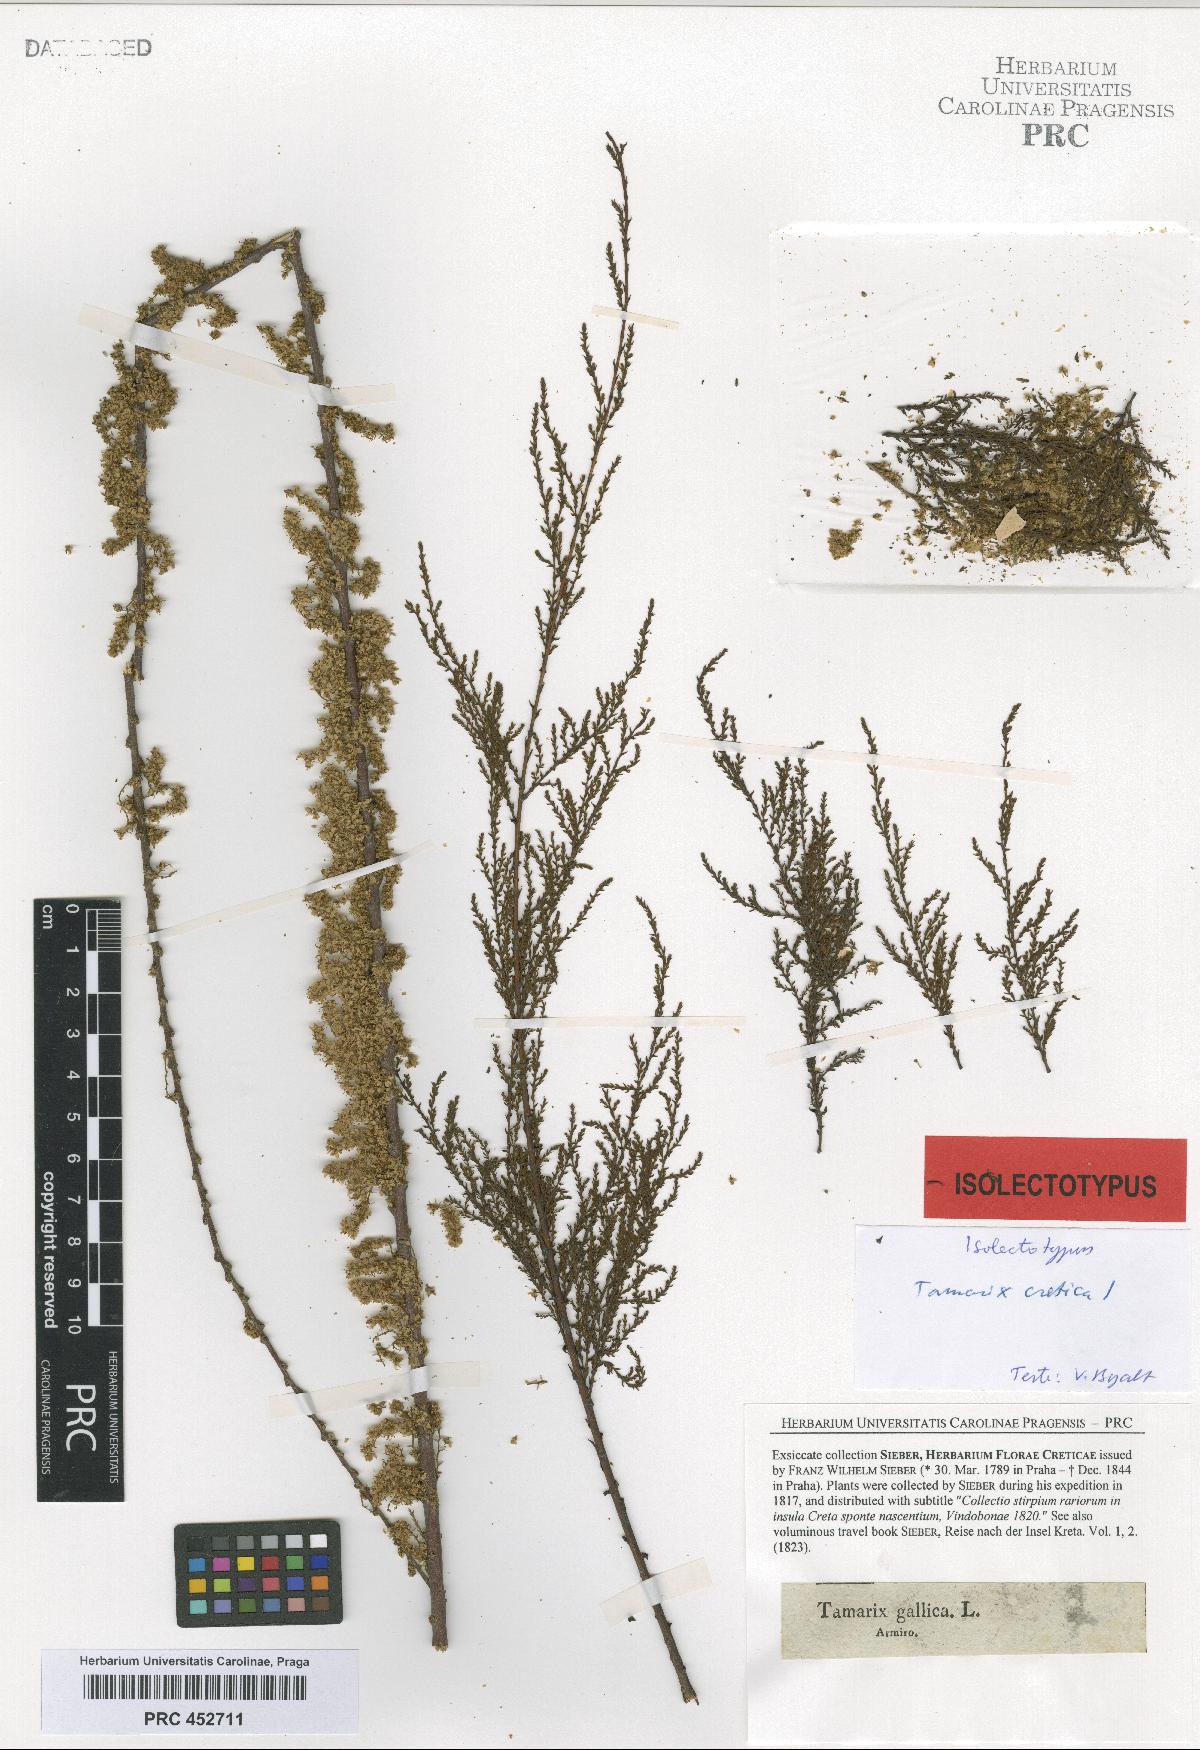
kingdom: Plantae
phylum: Tracheophyta
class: Magnoliopsida
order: Caryophyllales
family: Tamaricaceae
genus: Tamarix
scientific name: Tamarix parviflora
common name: Smallflower tamarisk
